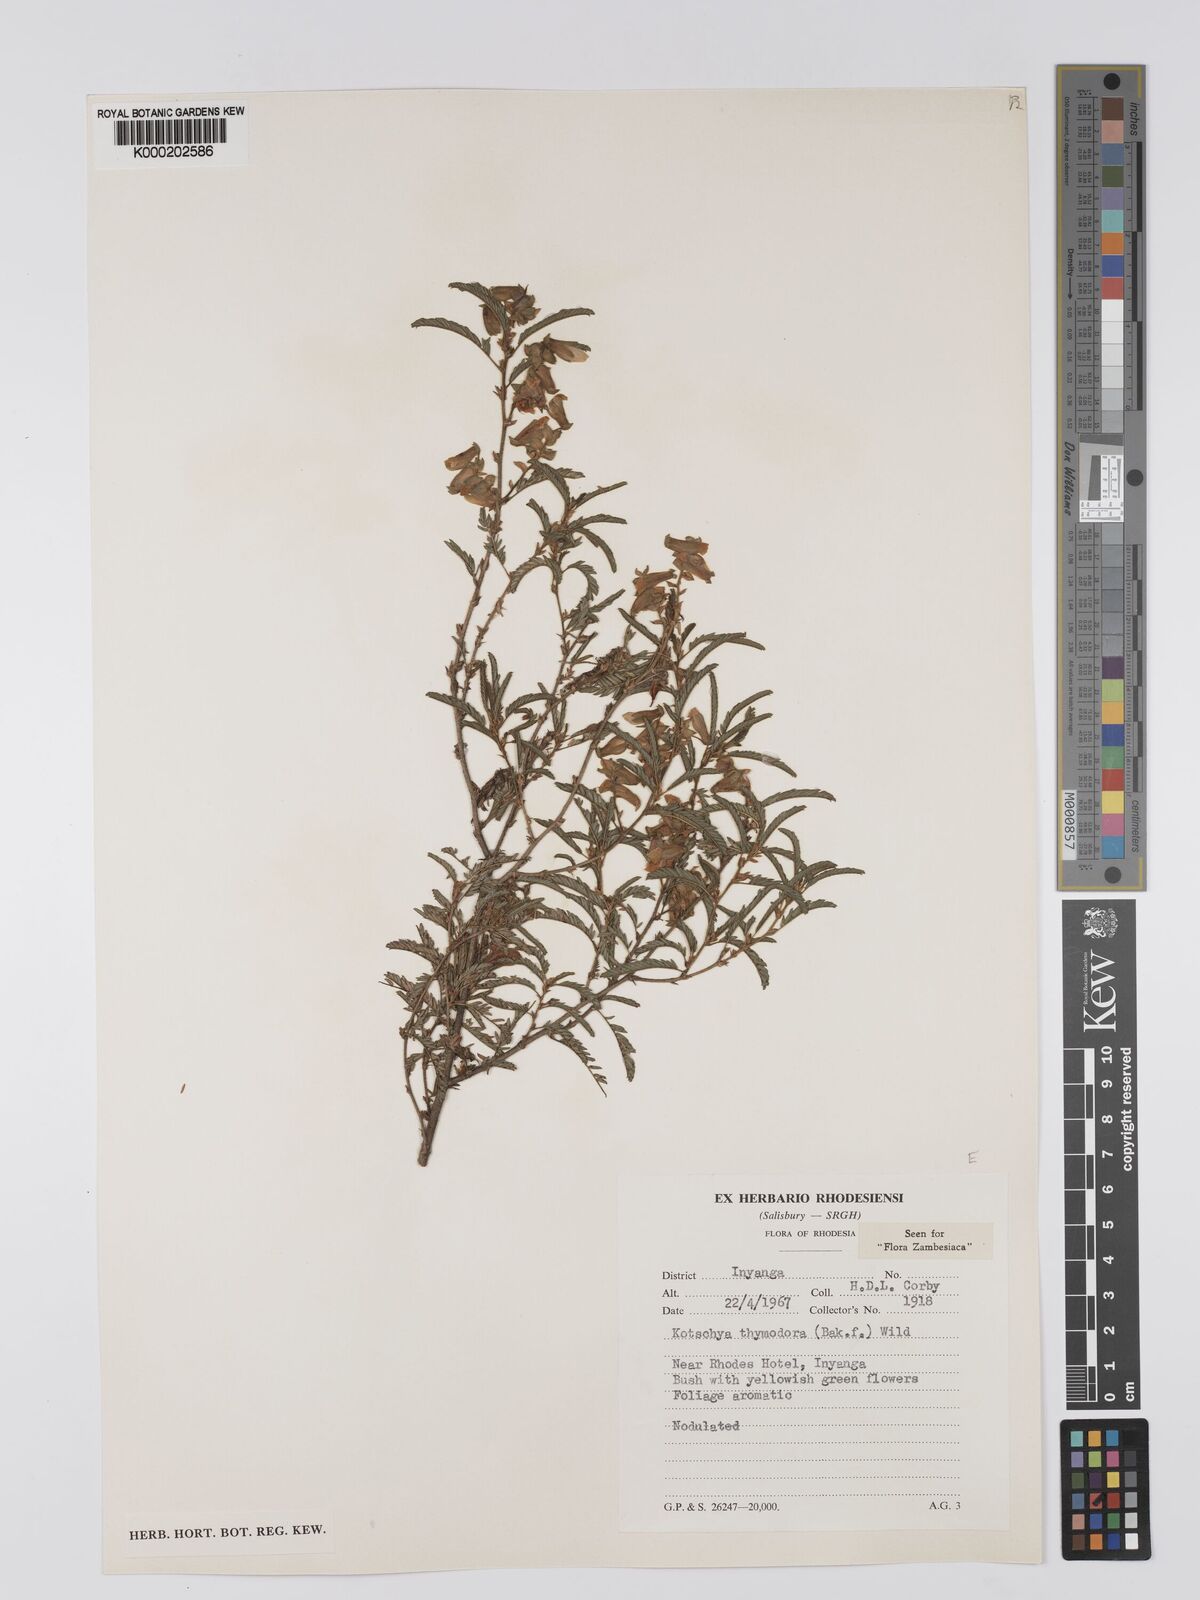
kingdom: Plantae
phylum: Tracheophyta
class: Magnoliopsida
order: Fabales
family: Fabaceae
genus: Kotschya
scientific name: Kotschya thymodora
